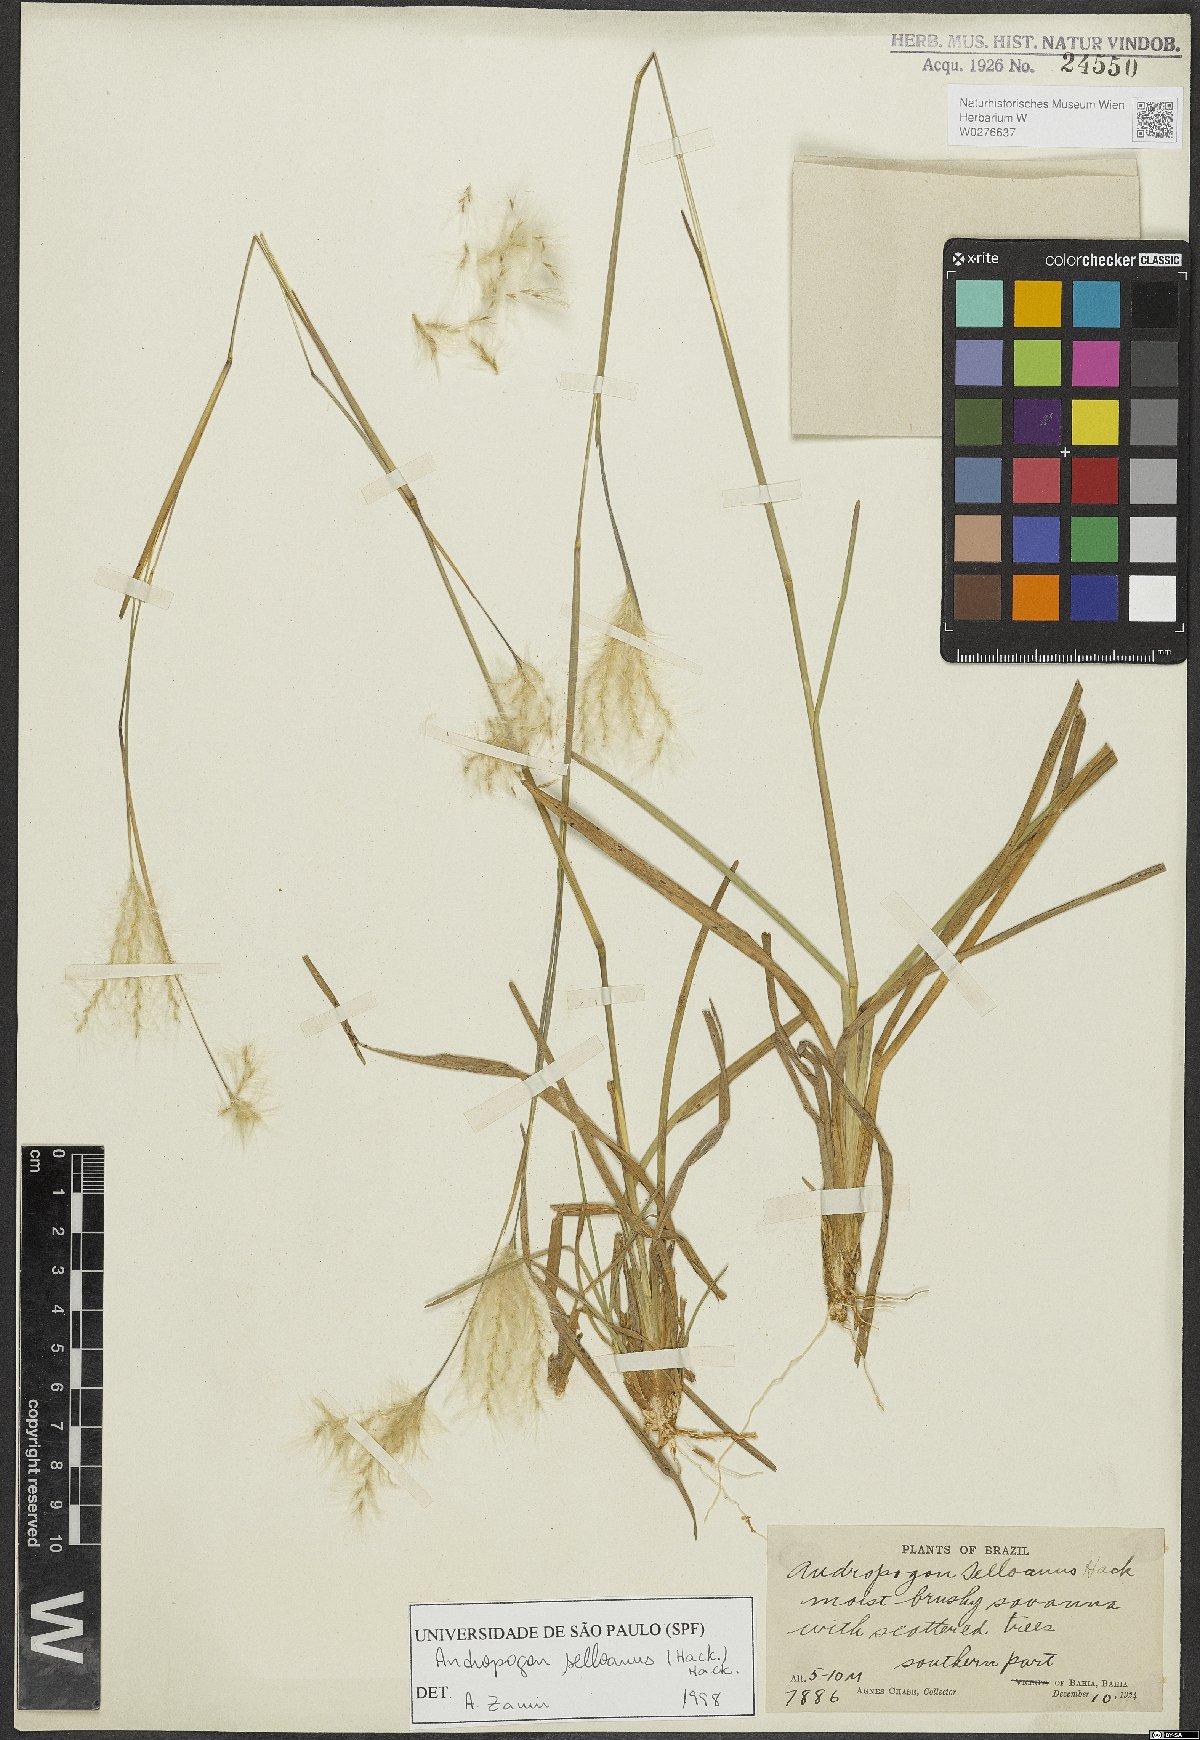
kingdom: Plantae
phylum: Tracheophyta
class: Liliopsida
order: Poales
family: Poaceae
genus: Andropogon
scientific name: Andropogon selloanus
